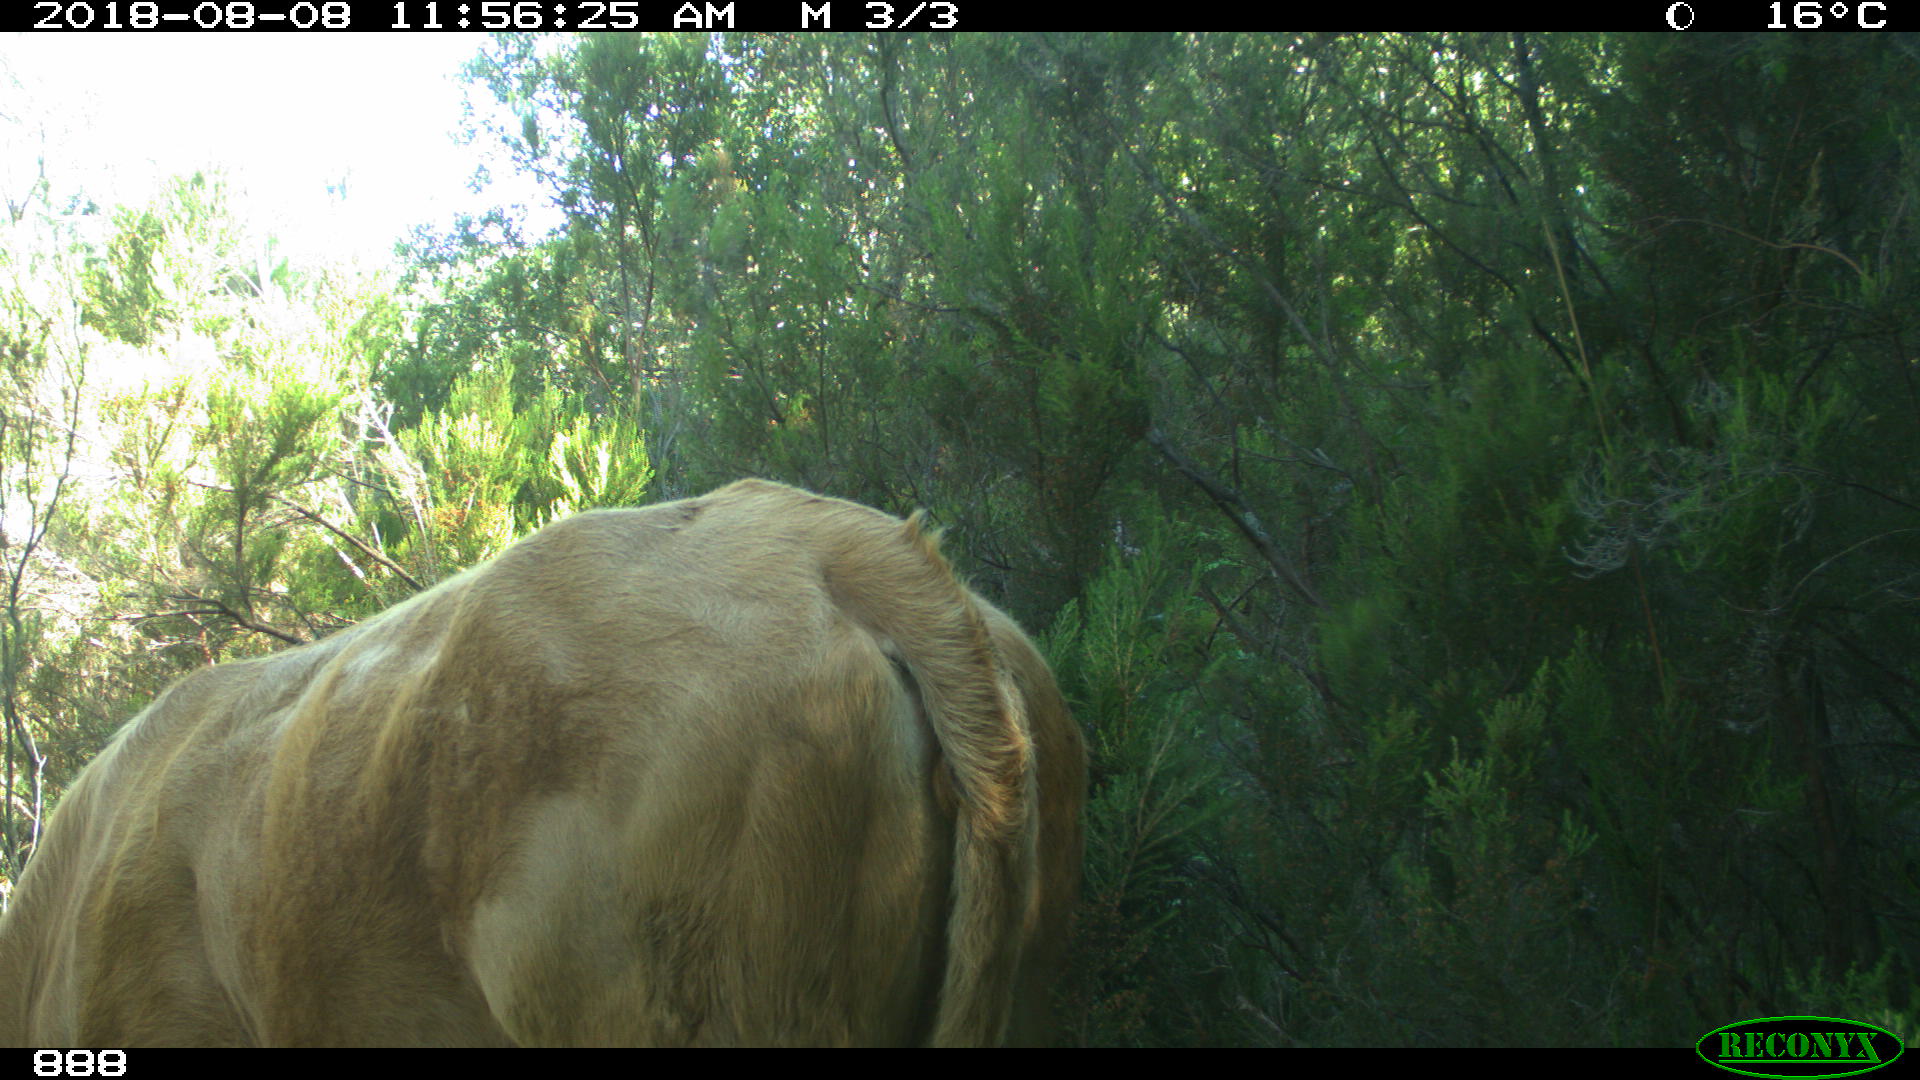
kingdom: Animalia
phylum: Chordata
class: Mammalia
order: Artiodactyla
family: Bovidae
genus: Bos
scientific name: Bos taurus
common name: Domesticated cattle
